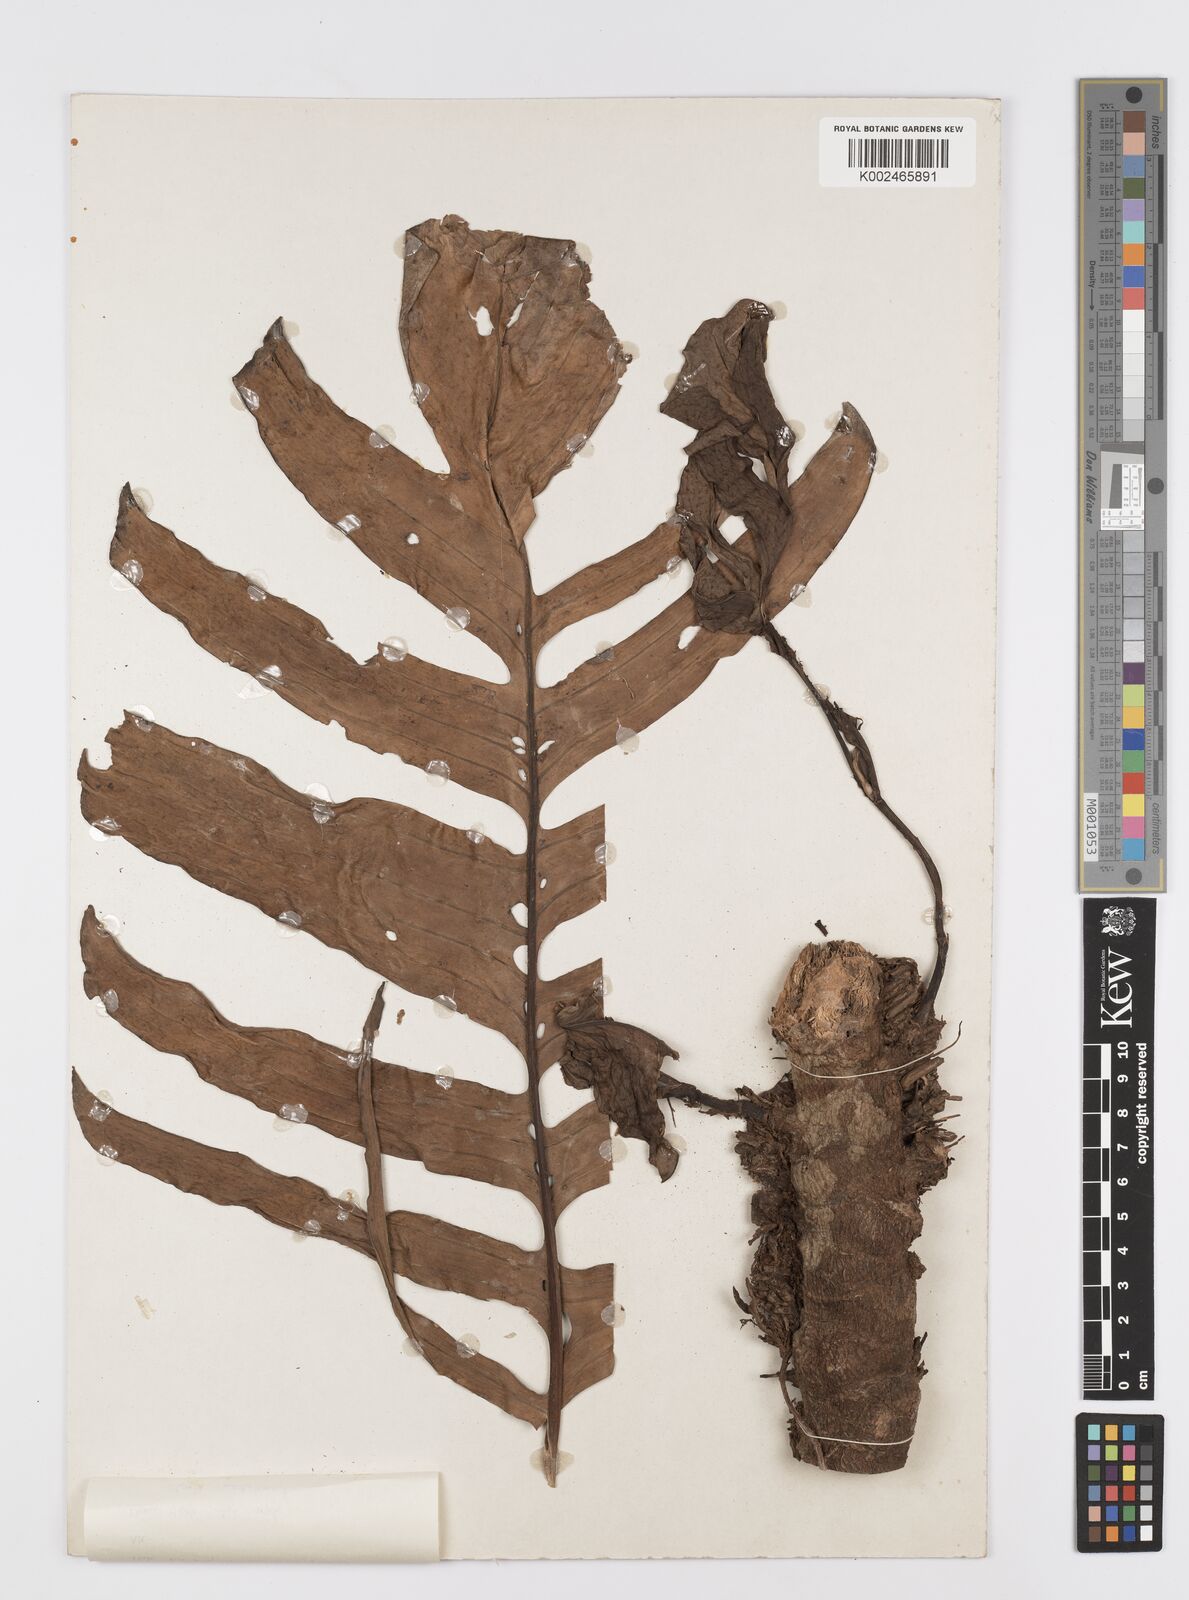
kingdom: Plantae
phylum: Tracheophyta
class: Liliopsida
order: Alismatales
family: Araceae
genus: Rhaphidophora
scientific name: Rhaphidophora korthalsii
